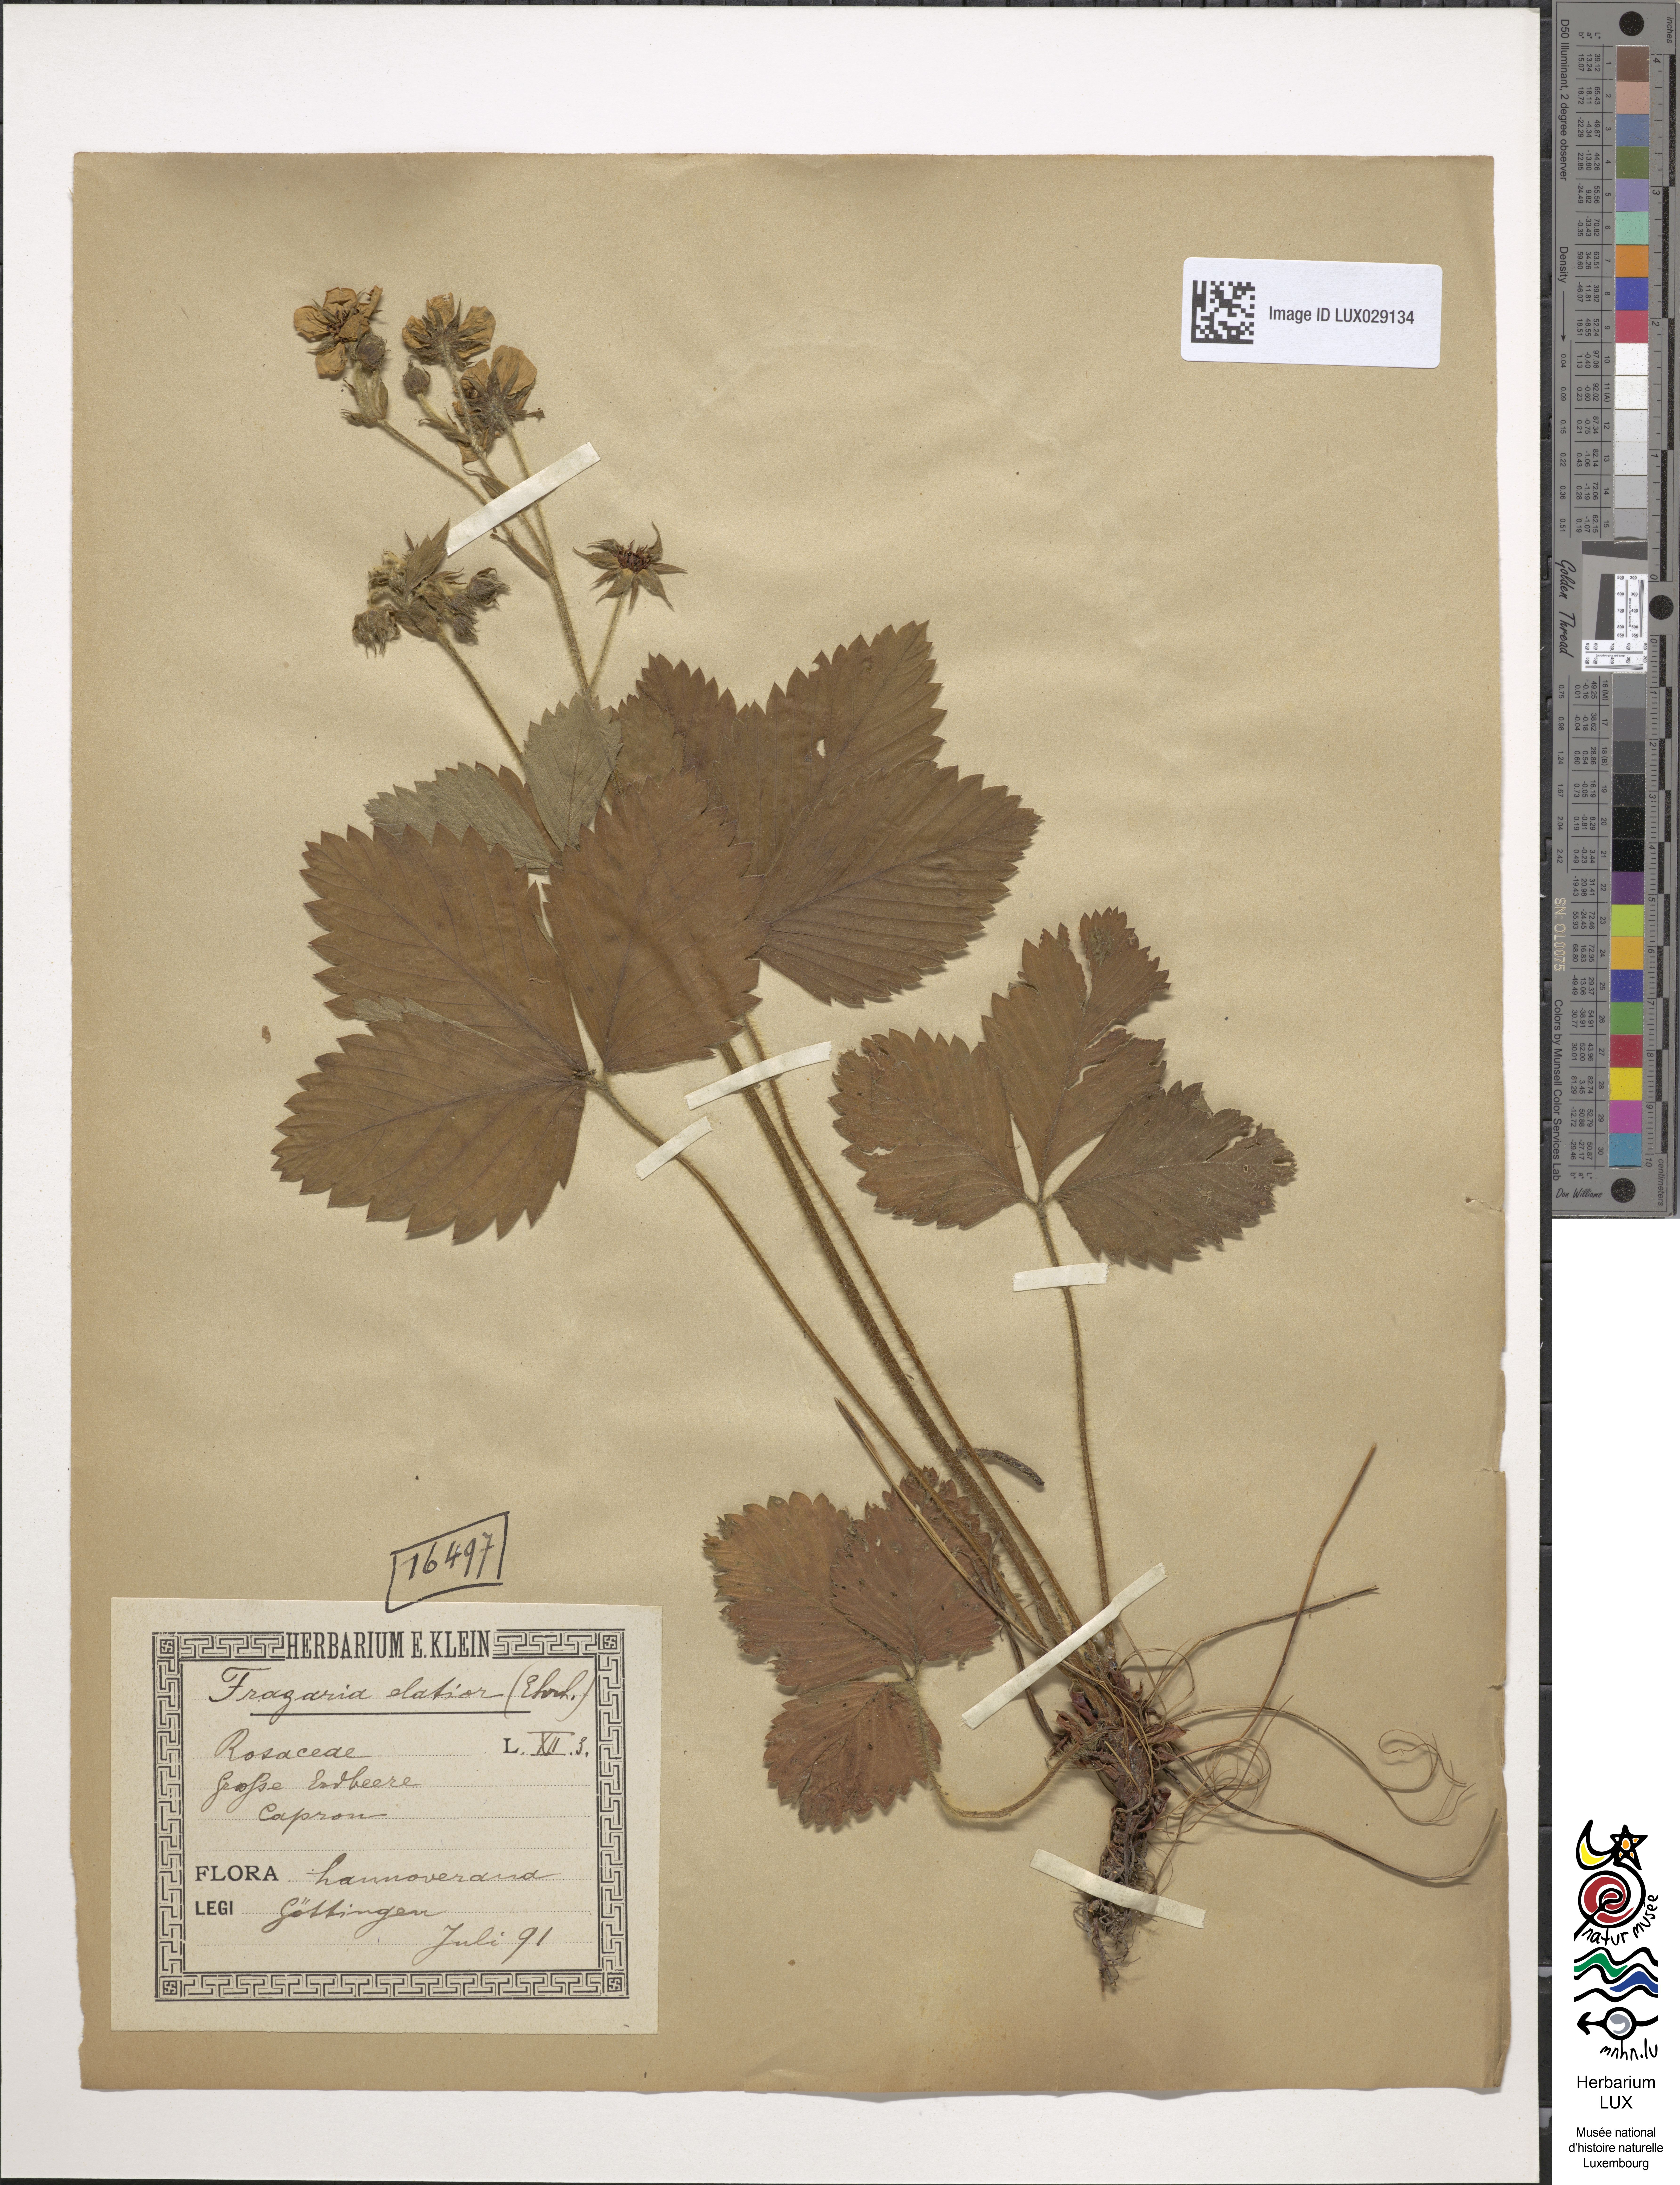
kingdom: Plantae
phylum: Tracheophyta
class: Magnoliopsida
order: Rosales
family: Rosaceae
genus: Fragaria
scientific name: Fragaria moschata
